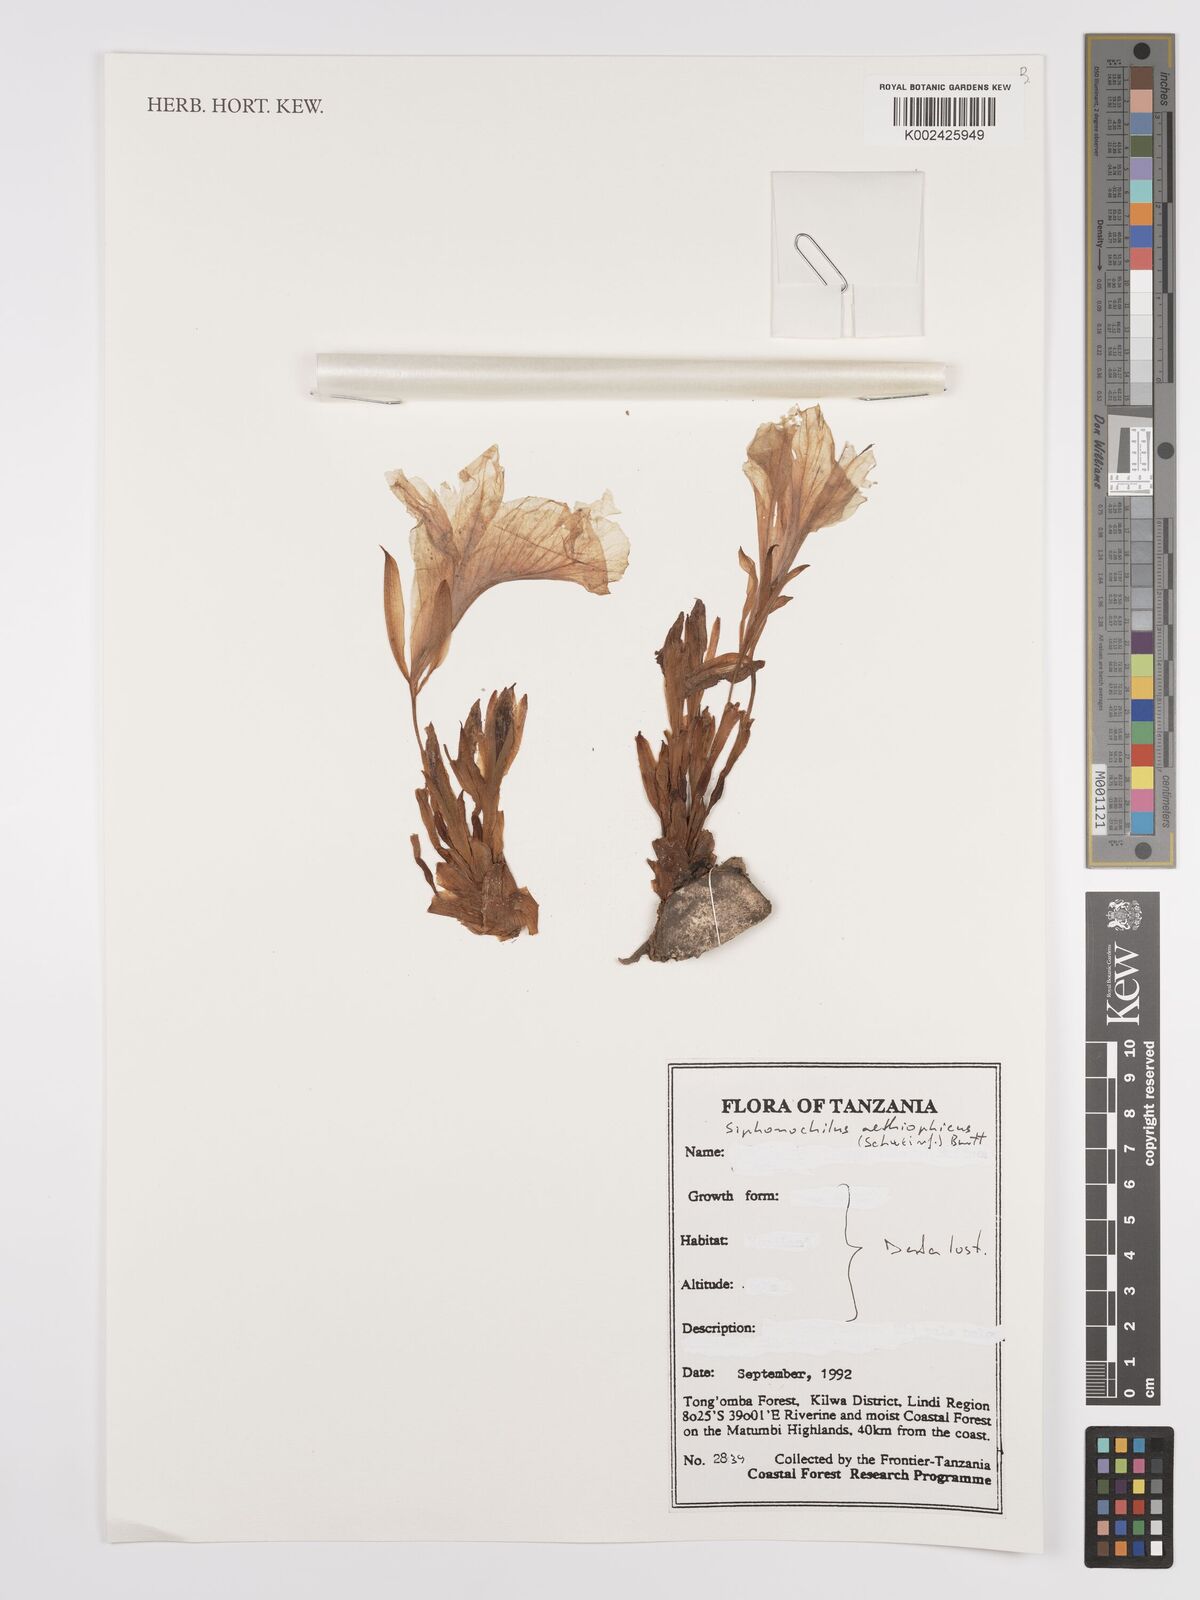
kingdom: Plantae
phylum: Tracheophyta
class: Liliopsida
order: Zingiberales
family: Zingiberaceae
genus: Siphonochilus
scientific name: Siphonochilus aethiopicus
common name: African-ginger
